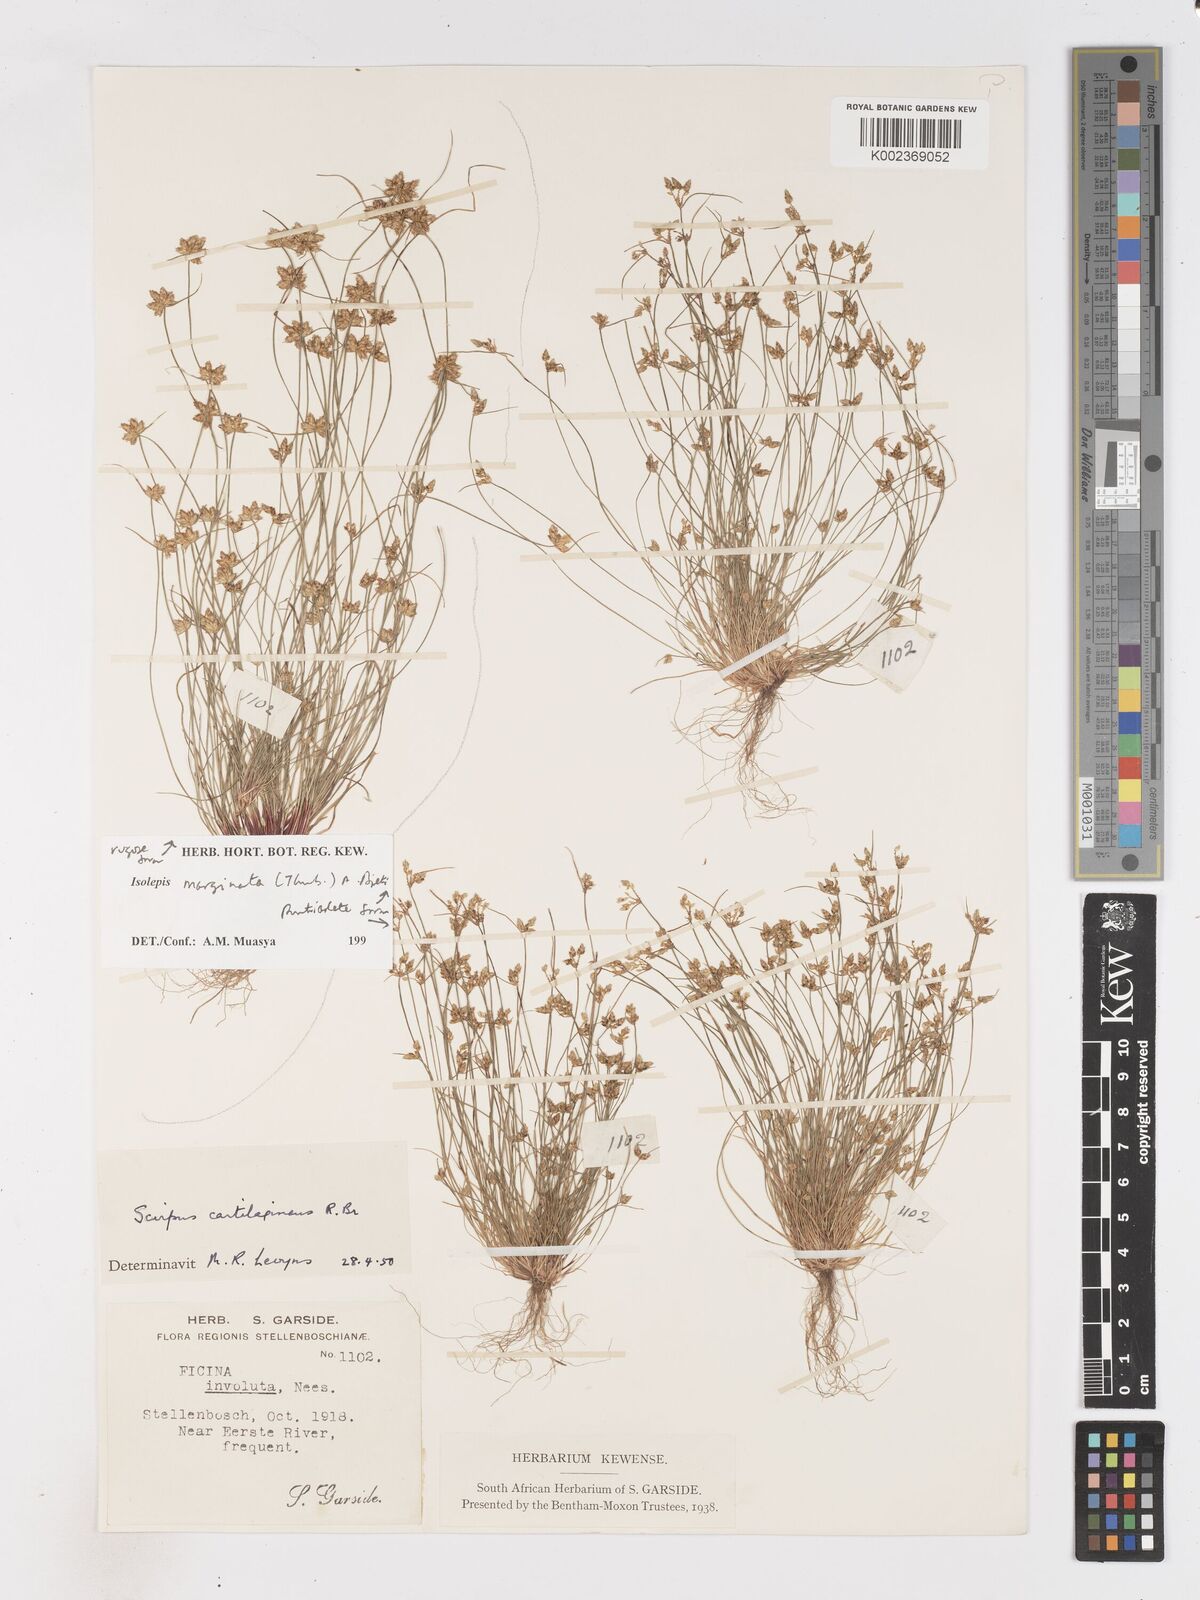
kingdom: Plantae
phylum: Tracheophyta
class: Liliopsida
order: Poales
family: Cyperaceae
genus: Isolepis
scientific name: Isolepis diabolica
